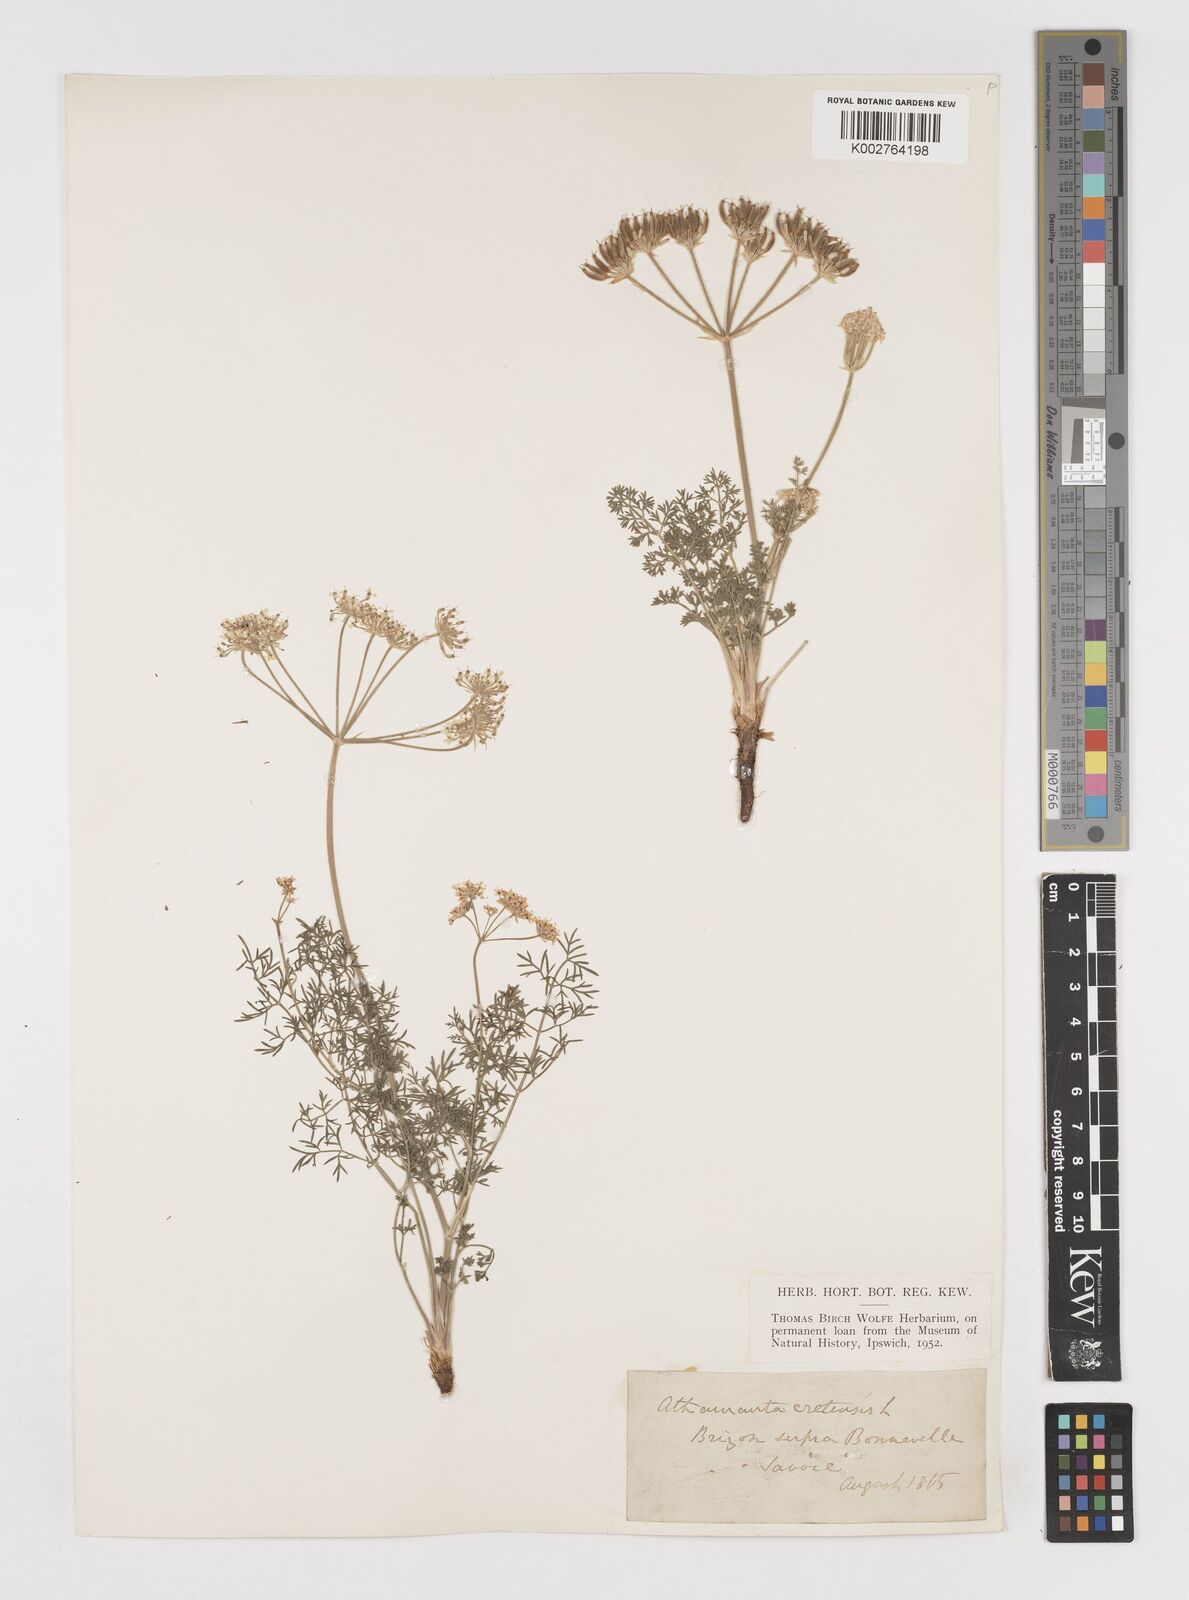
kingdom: Plantae
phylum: Tracheophyta
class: Magnoliopsida
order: Apiales
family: Apiaceae
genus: Athamanta
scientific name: Athamanta cretensis
